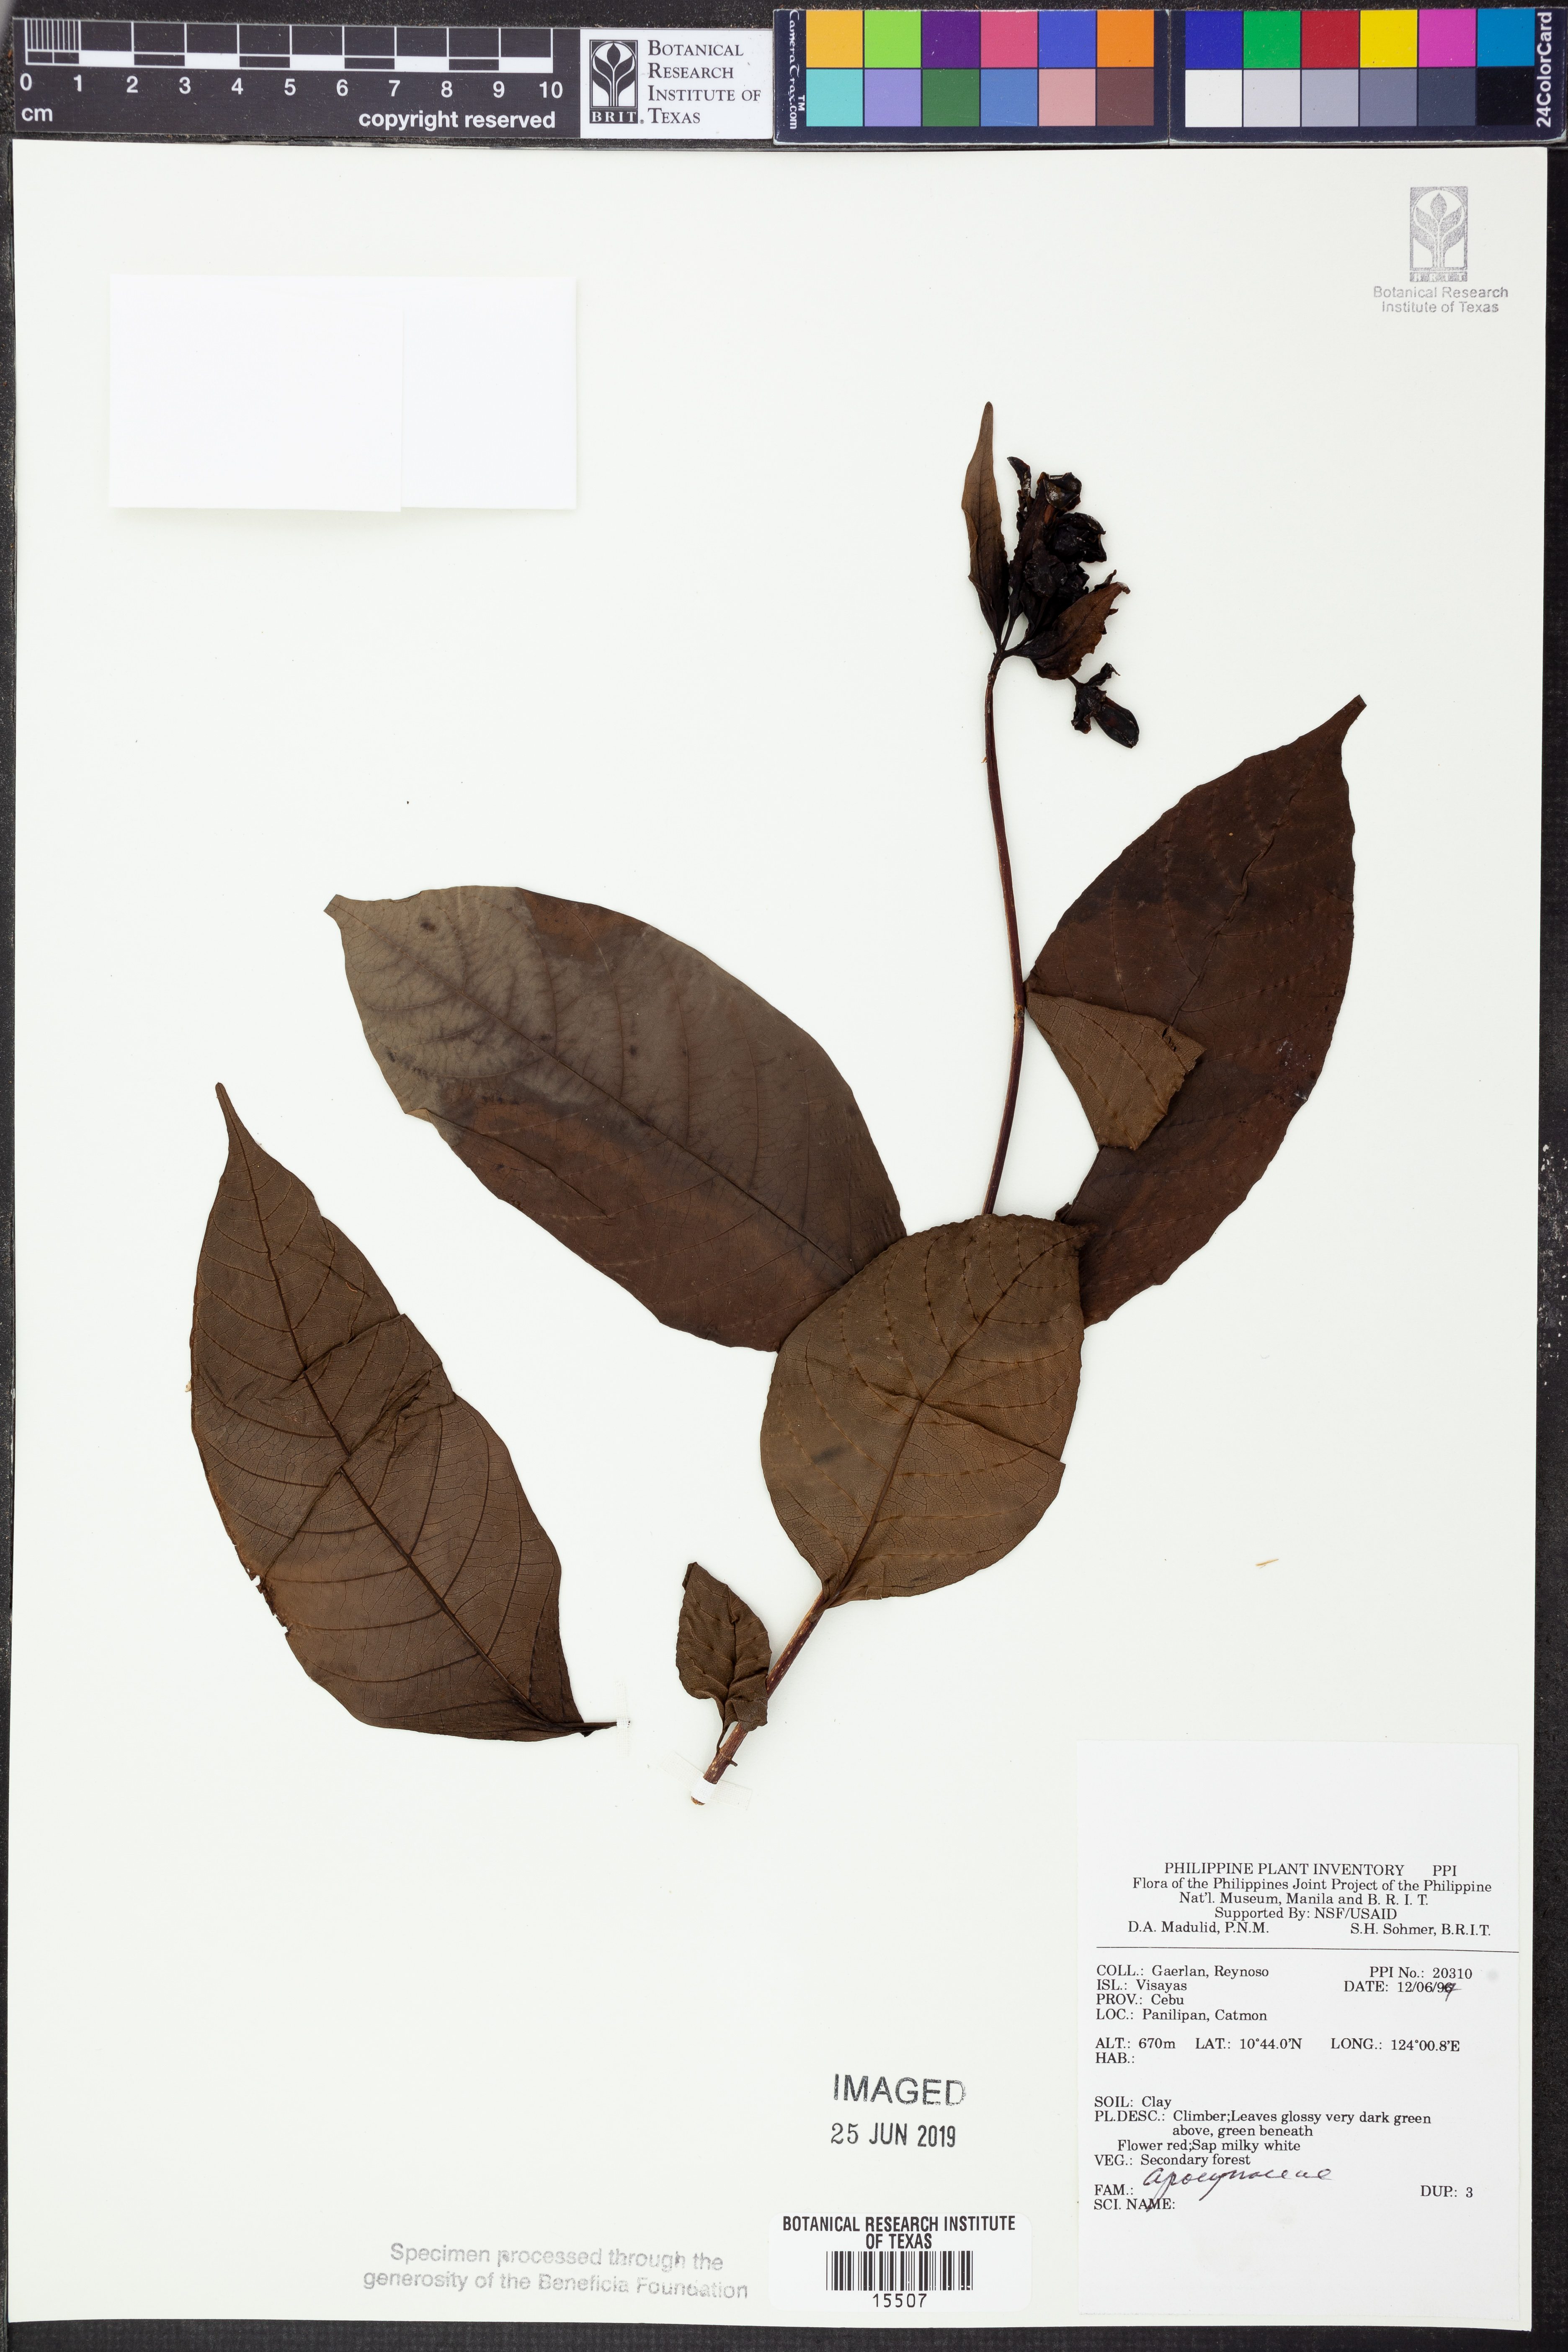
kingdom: Plantae
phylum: Tracheophyta
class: Magnoliopsida
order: Gentianales
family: Apocynaceae
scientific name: Apocynaceae
